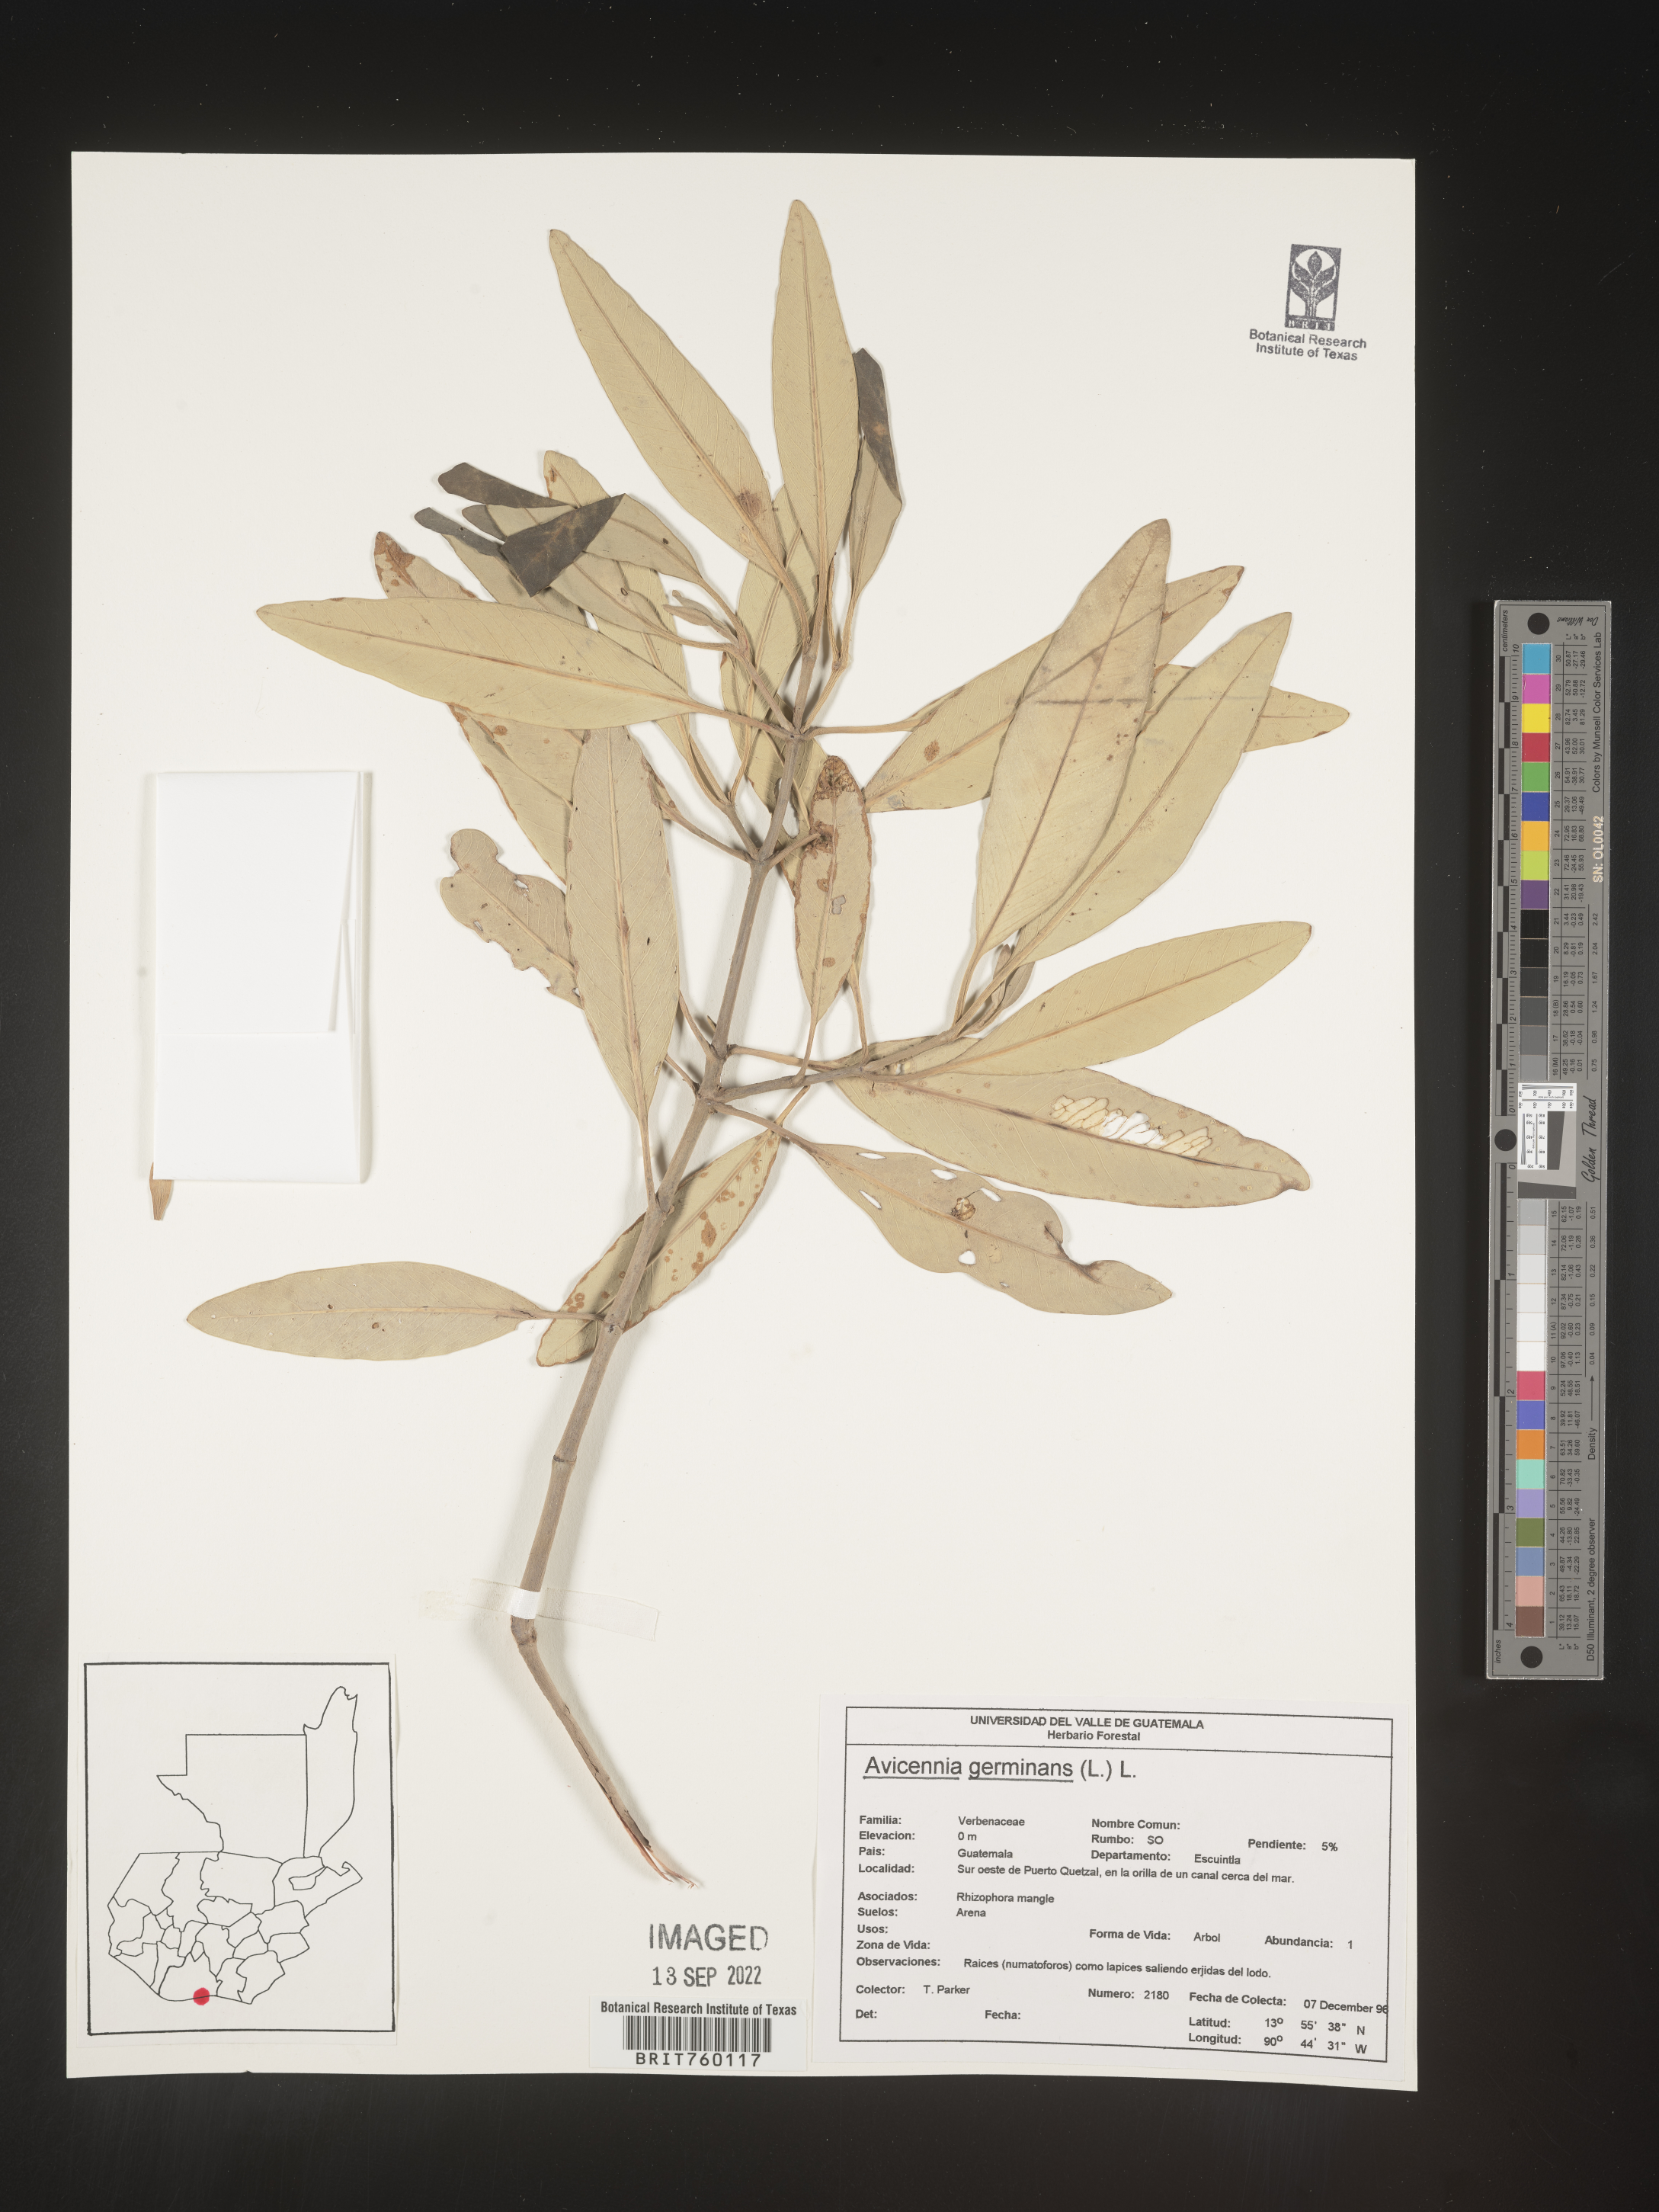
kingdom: Plantae
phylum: Tracheophyta
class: Magnoliopsida
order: Lamiales
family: Acanthaceae
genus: Avicennia
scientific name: Avicennia
